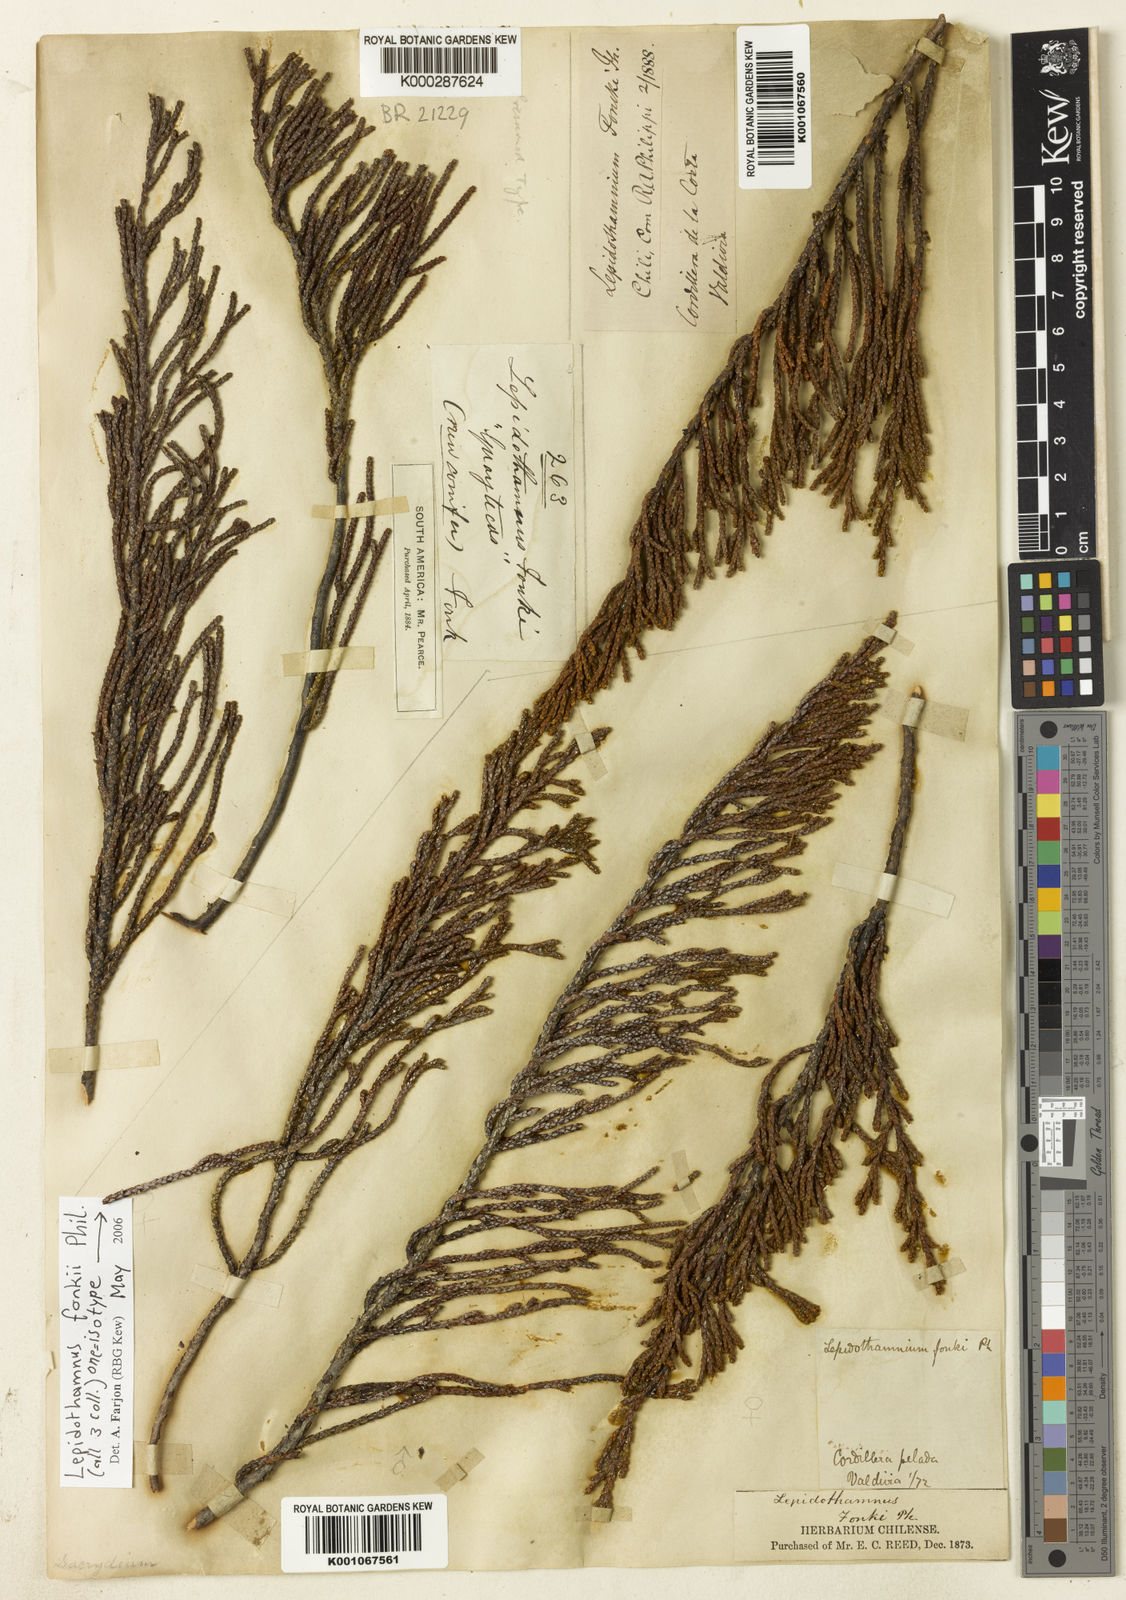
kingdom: Plantae
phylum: Tracheophyta
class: Pinopsida
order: Pinales
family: Podocarpaceae
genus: Lepidothamnus
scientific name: Lepidothamnus fonkii
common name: Chilean rimu
